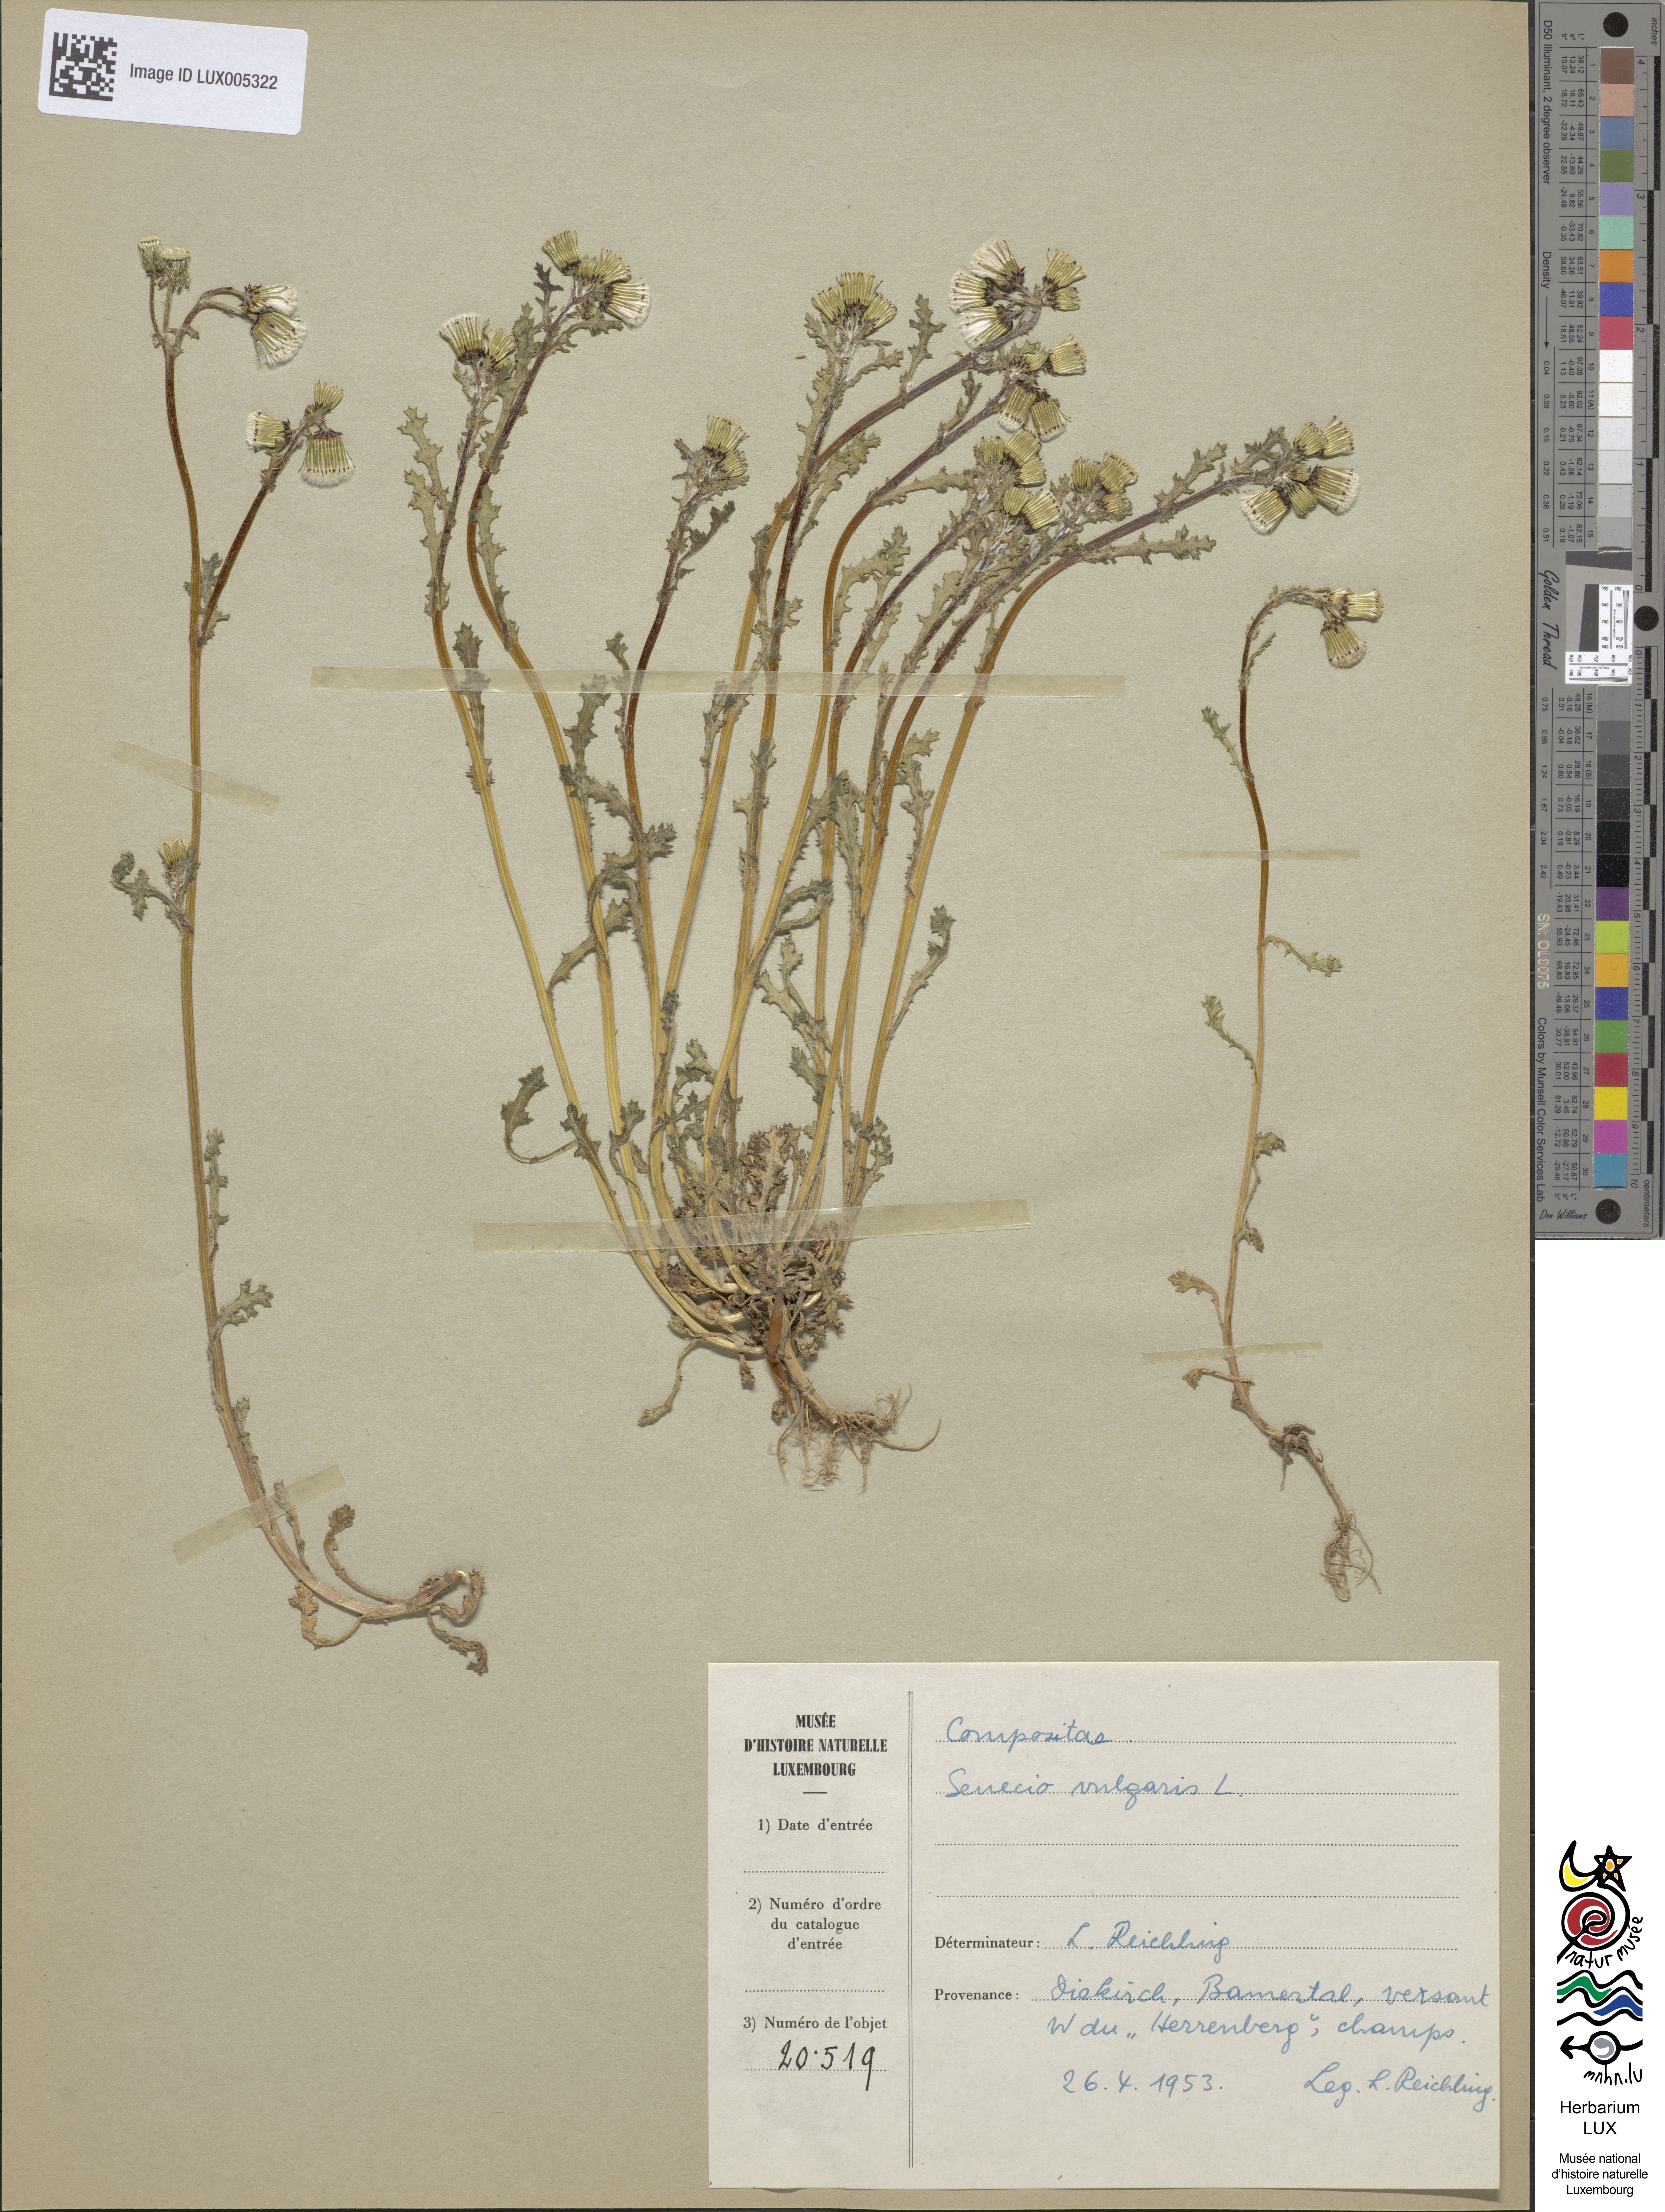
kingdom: Plantae
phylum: Tracheophyta
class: Magnoliopsida
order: Asterales
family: Asteraceae
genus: Senecio
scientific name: Senecio vulgaris
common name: Old-man-in-the-spring
